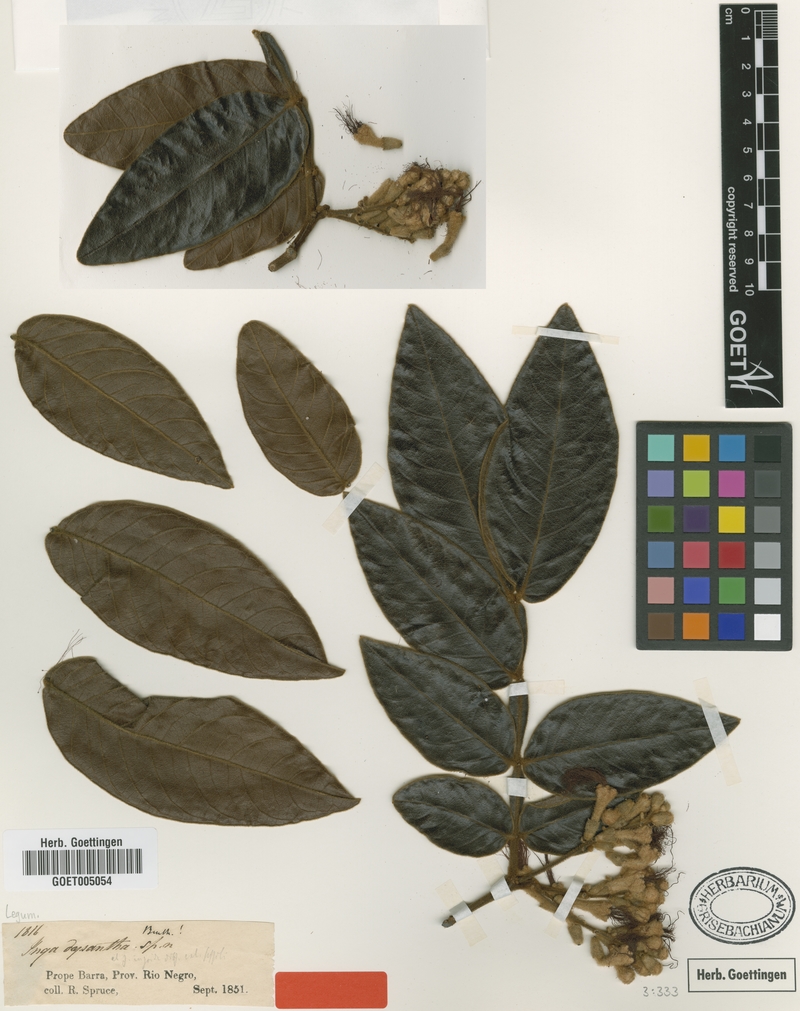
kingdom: Plantae
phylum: Tracheophyta
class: Magnoliopsida
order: Fabales
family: Fabaceae
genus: Inga
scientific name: Inga cayennensis
